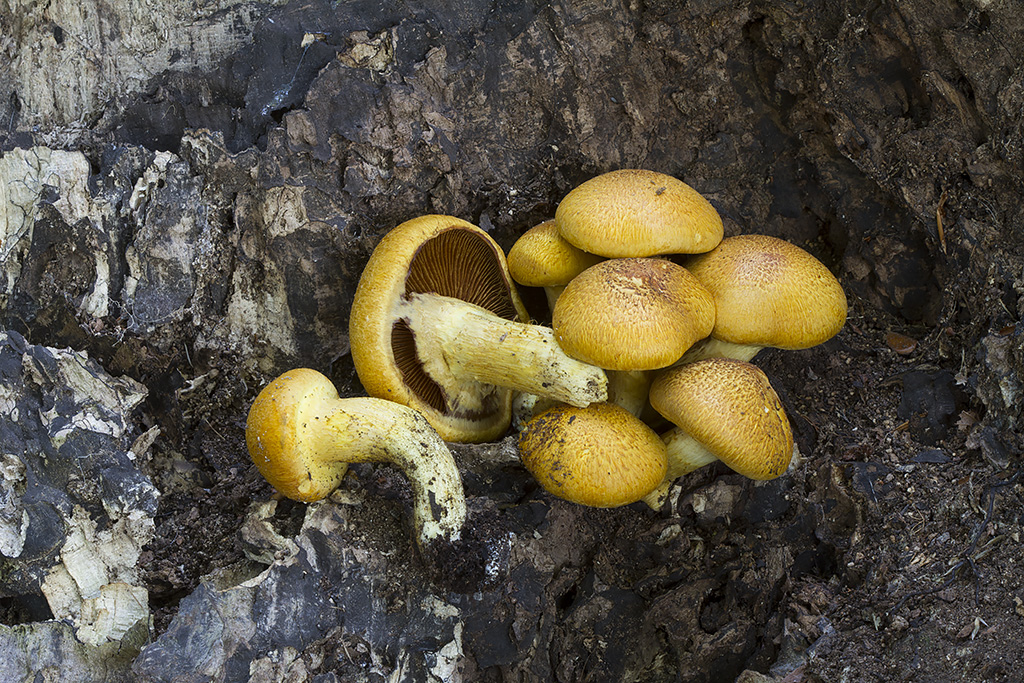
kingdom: Fungi
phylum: Basidiomycota
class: Agaricomycetes
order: Agaricales
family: Hymenogastraceae
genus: Gymnopilus
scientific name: Gymnopilus spectabilis
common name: fibret flammehat
